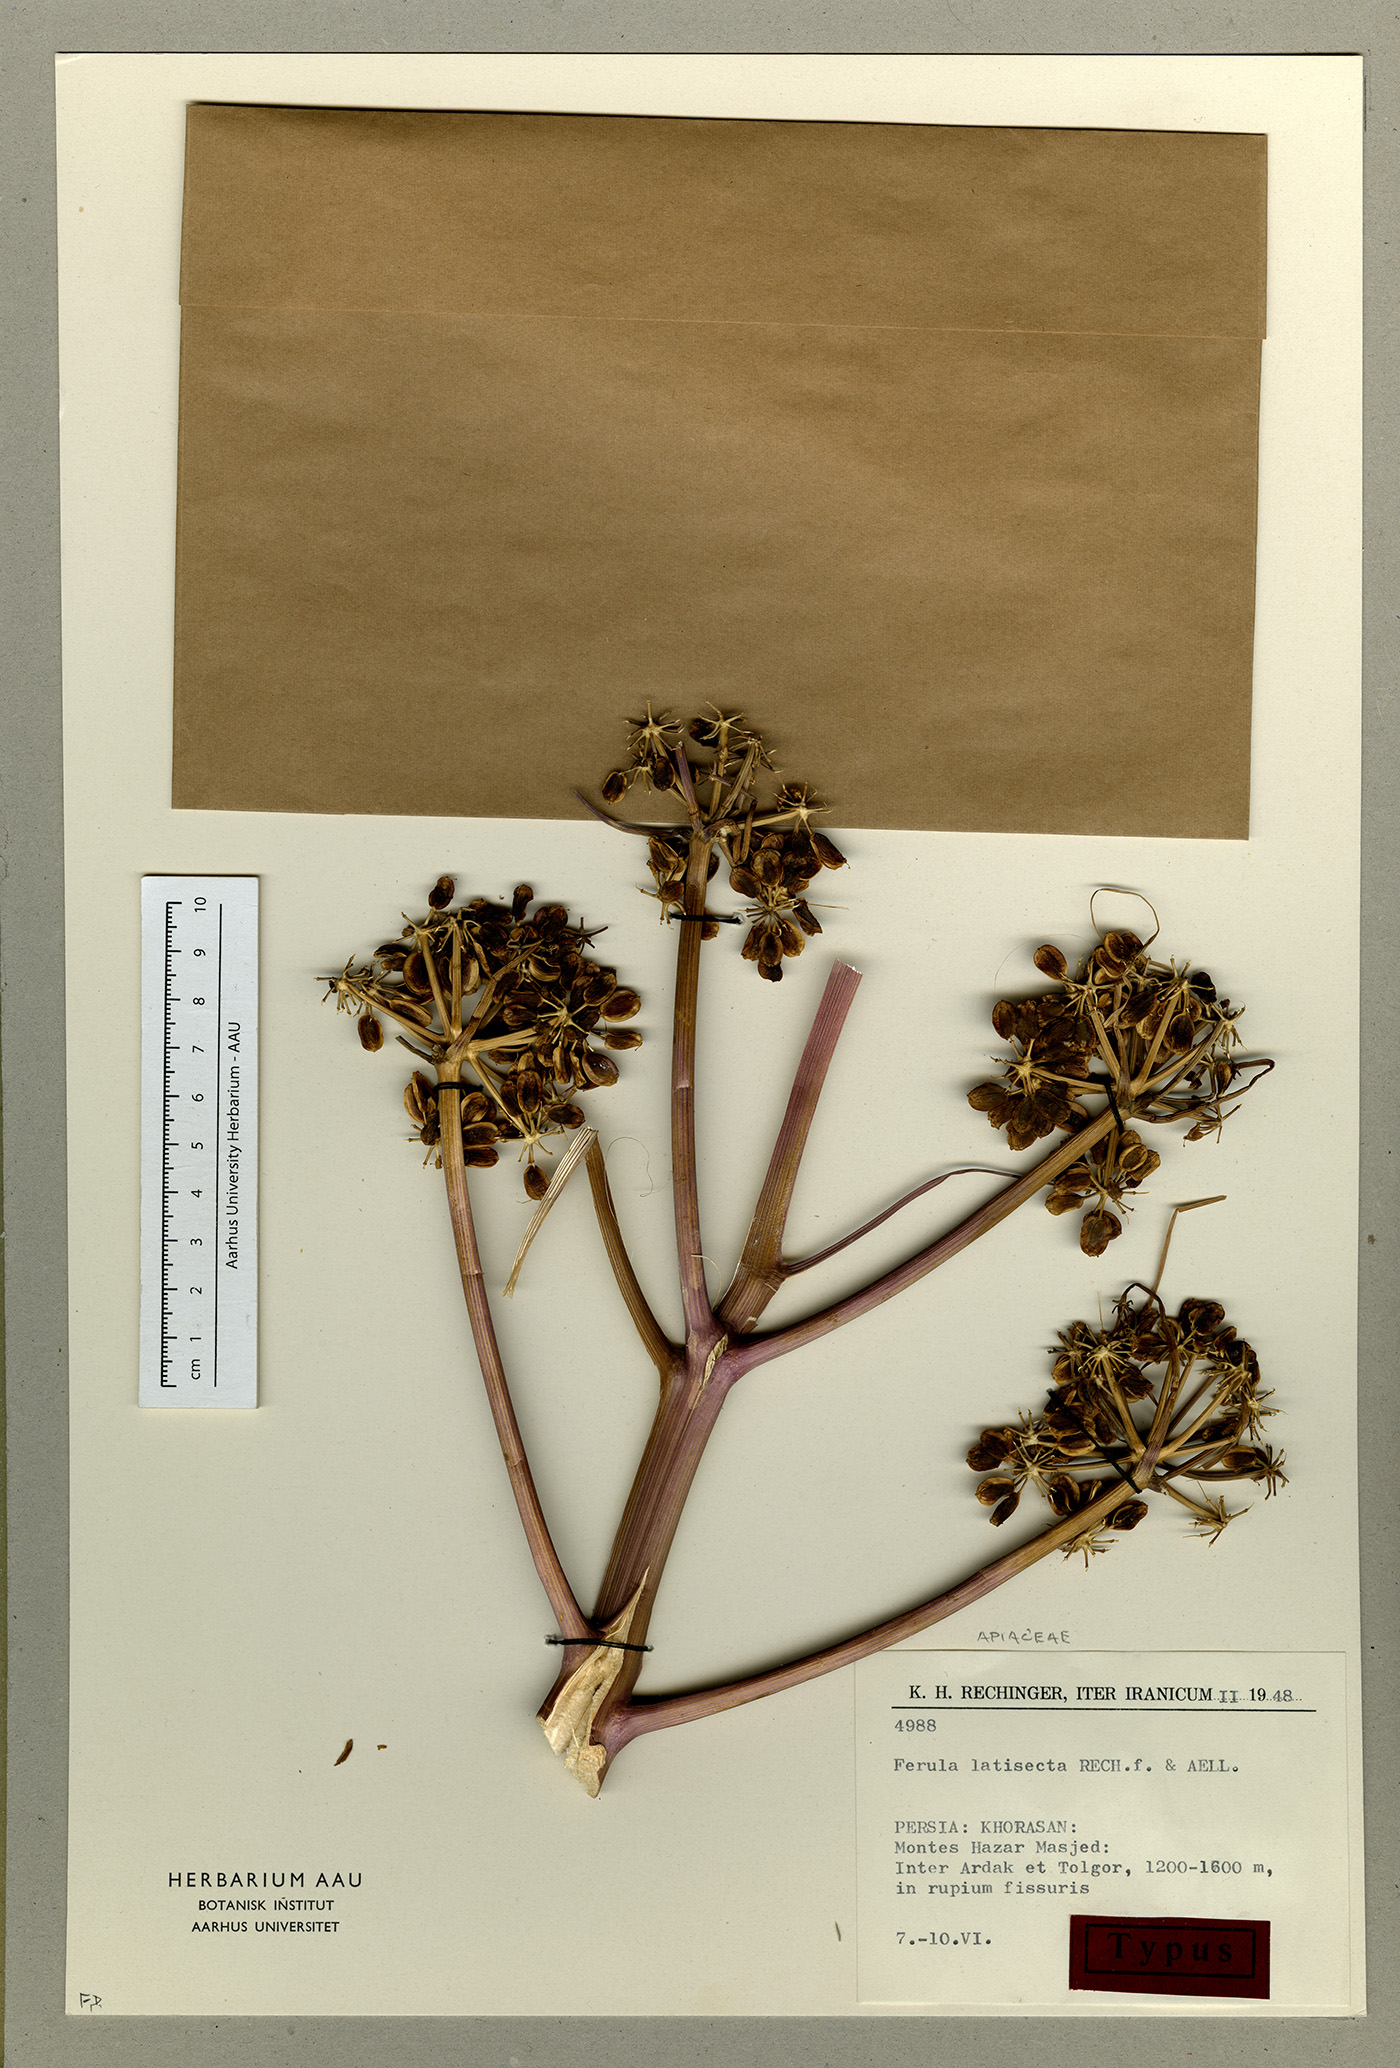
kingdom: Plantae
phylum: Tracheophyta
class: Magnoliopsida
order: Apiales
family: Apiaceae
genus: Ferula
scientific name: Ferula latisecta
